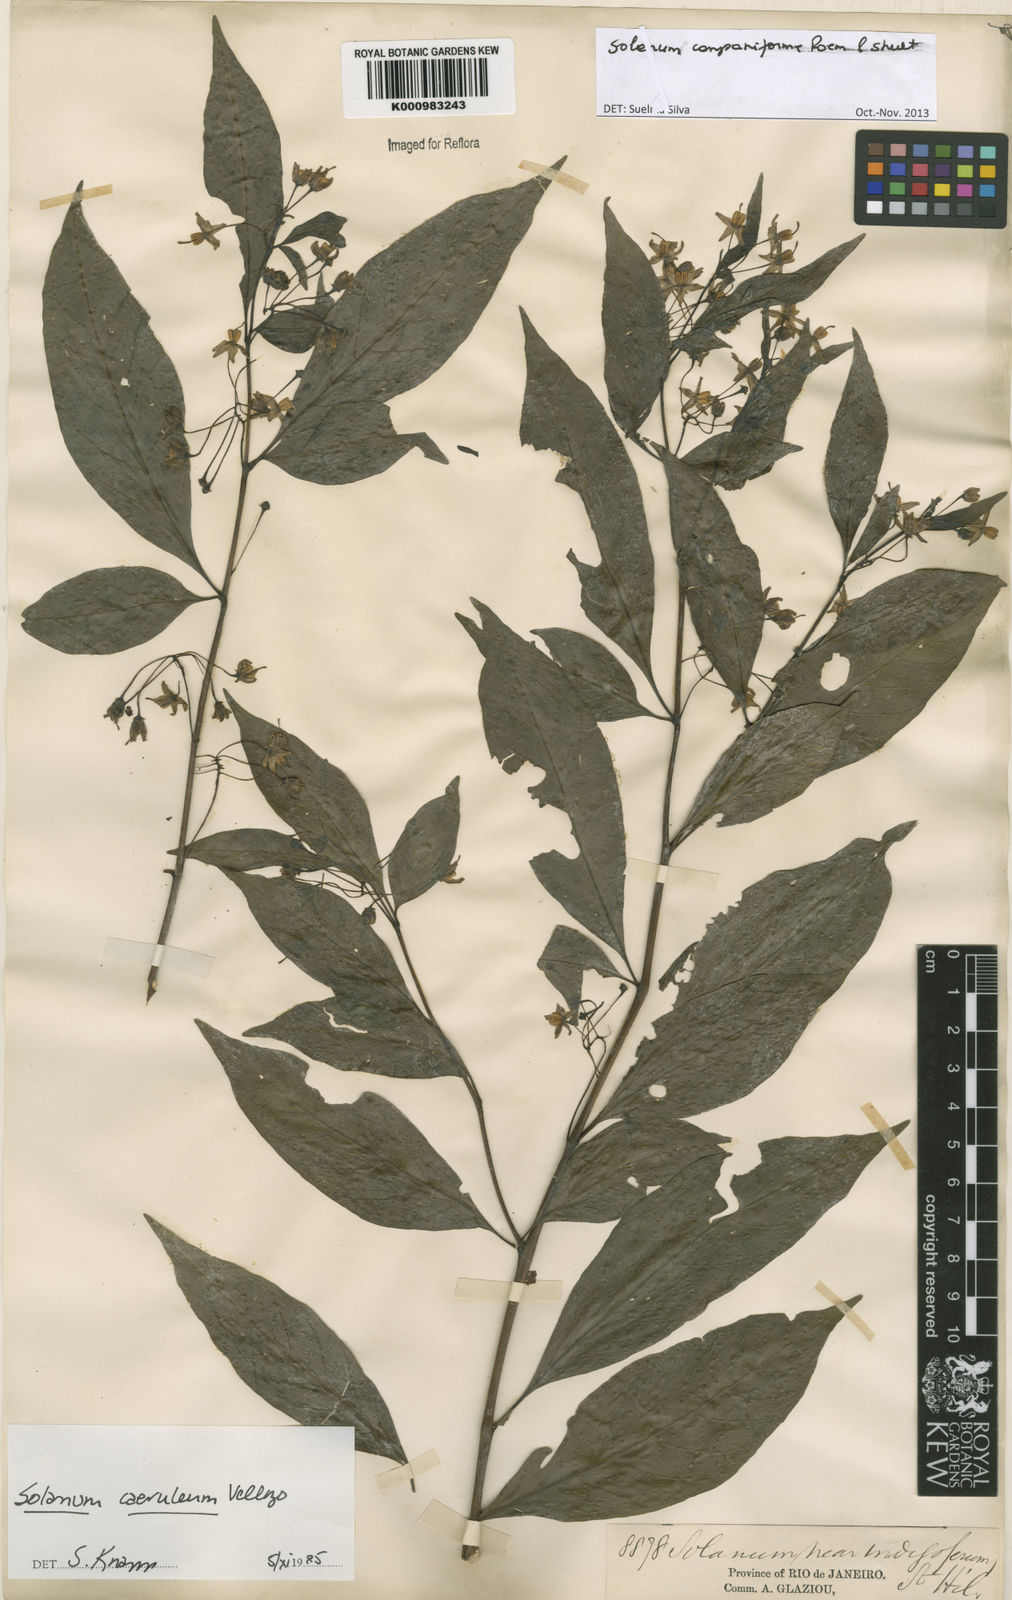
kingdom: Plantae
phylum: Tracheophyta
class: Magnoliopsida
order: Solanales
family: Solanaceae
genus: Solanum
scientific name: Solanum campaniforme
